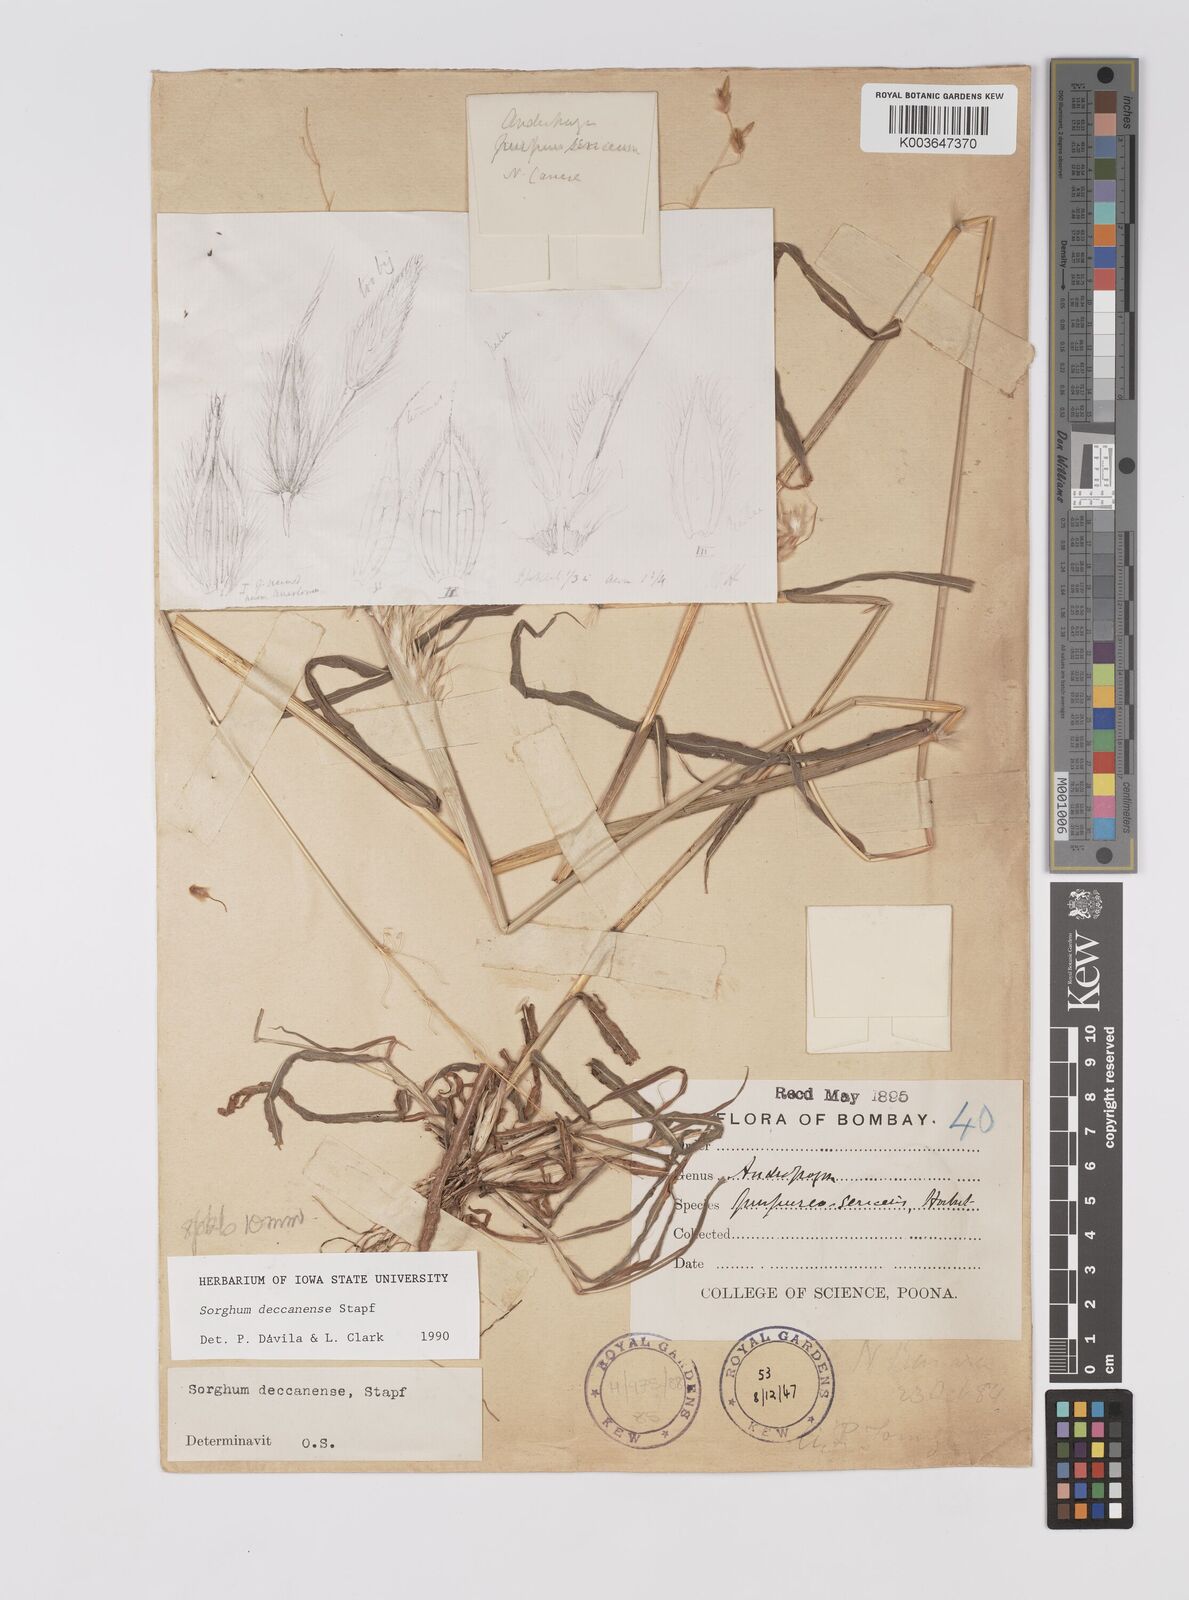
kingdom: Plantae
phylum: Tracheophyta
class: Liliopsida
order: Poales
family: Poaceae
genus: Sarga
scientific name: Sarga purpureosericea
